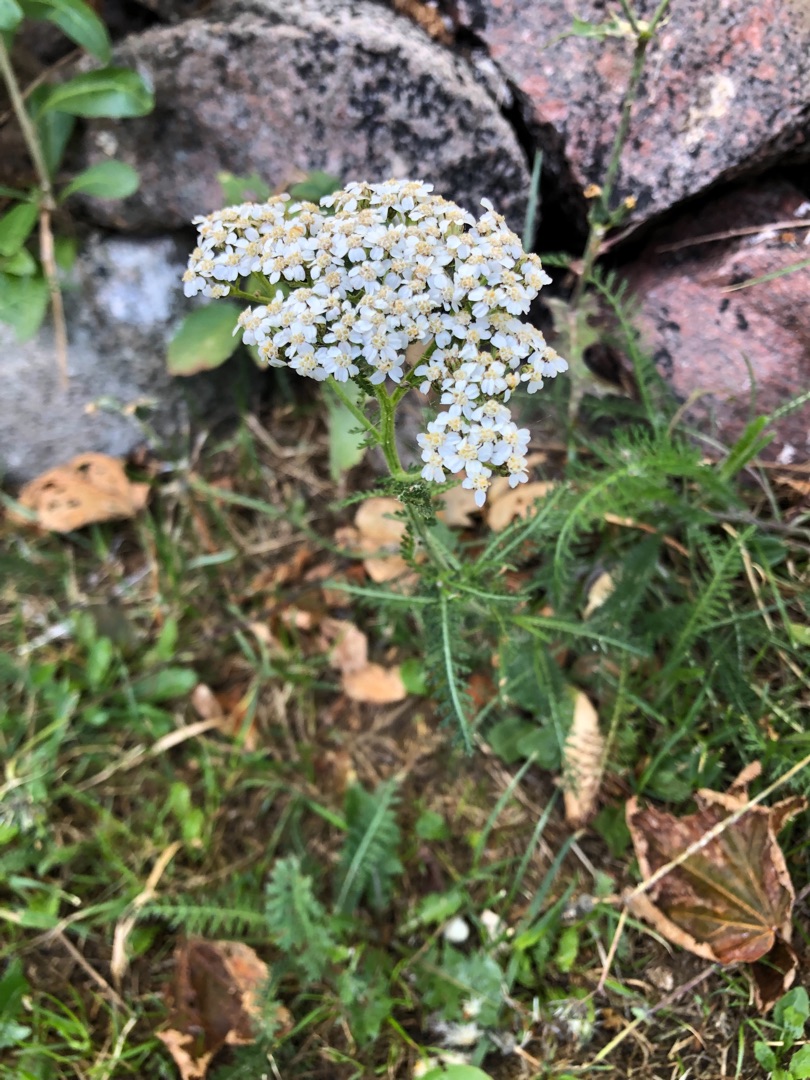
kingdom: Plantae
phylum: Tracheophyta
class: Magnoliopsida
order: Asterales
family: Asteraceae
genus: Achillea
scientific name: Achillea millefolium
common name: Almindelig røllike
